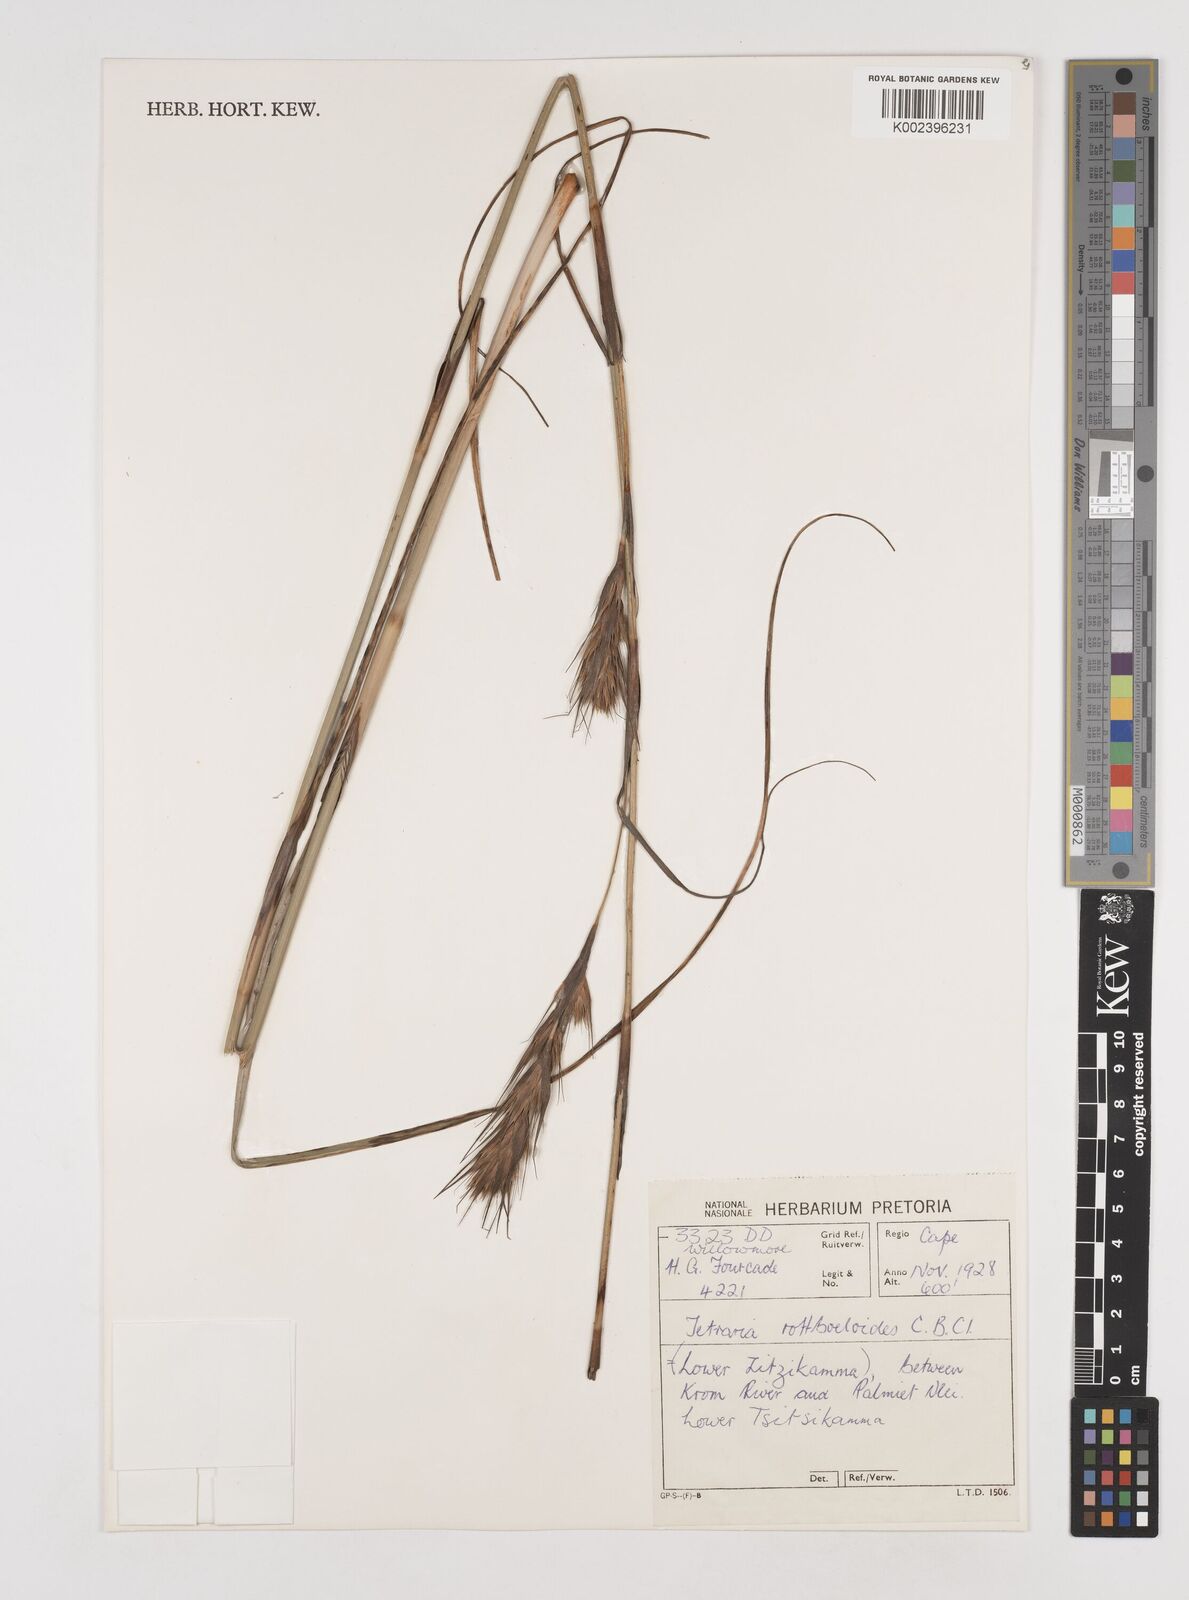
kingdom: Plantae
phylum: Tracheophyta
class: Liliopsida
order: Poales
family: Cyperaceae
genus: Tetraria
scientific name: Tetraria bromoides
